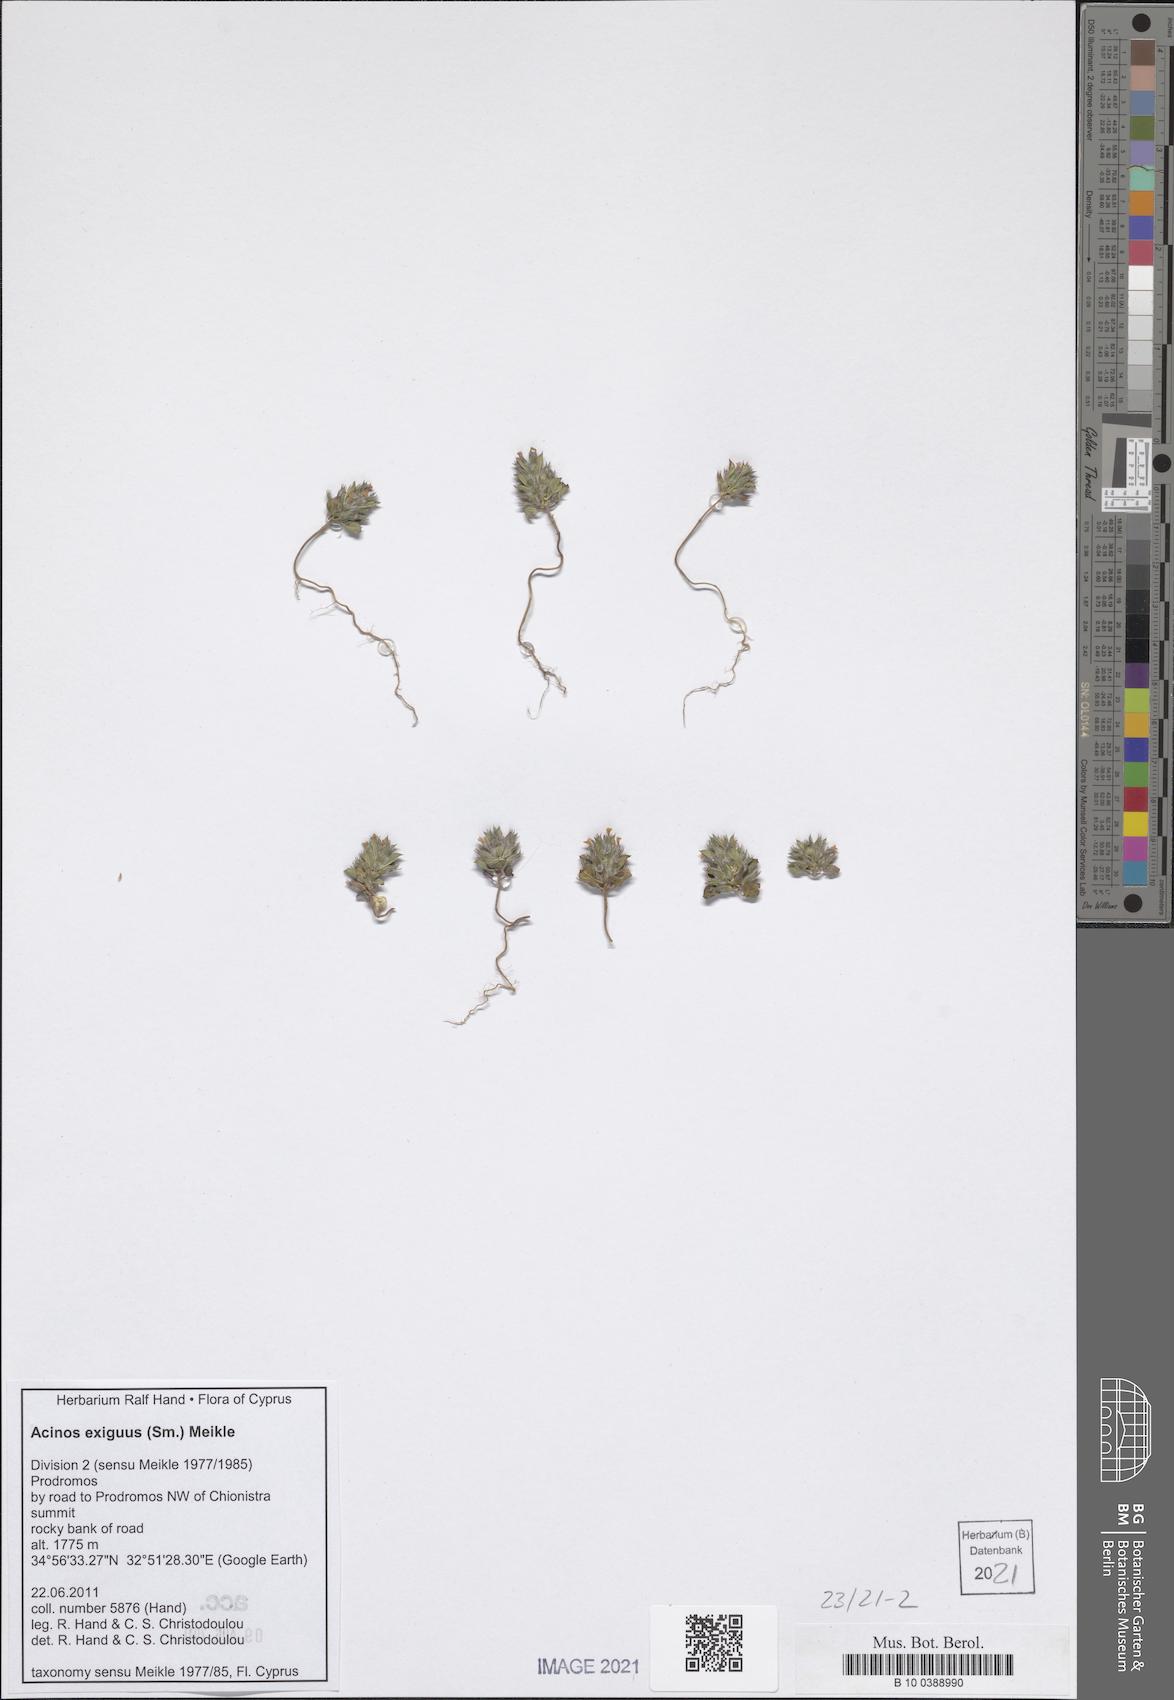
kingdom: Plantae
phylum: Tracheophyta
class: Magnoliopsida
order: Lamiales
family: Lamiaceae
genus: Clinopodium
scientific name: Clinopodium graveolens
